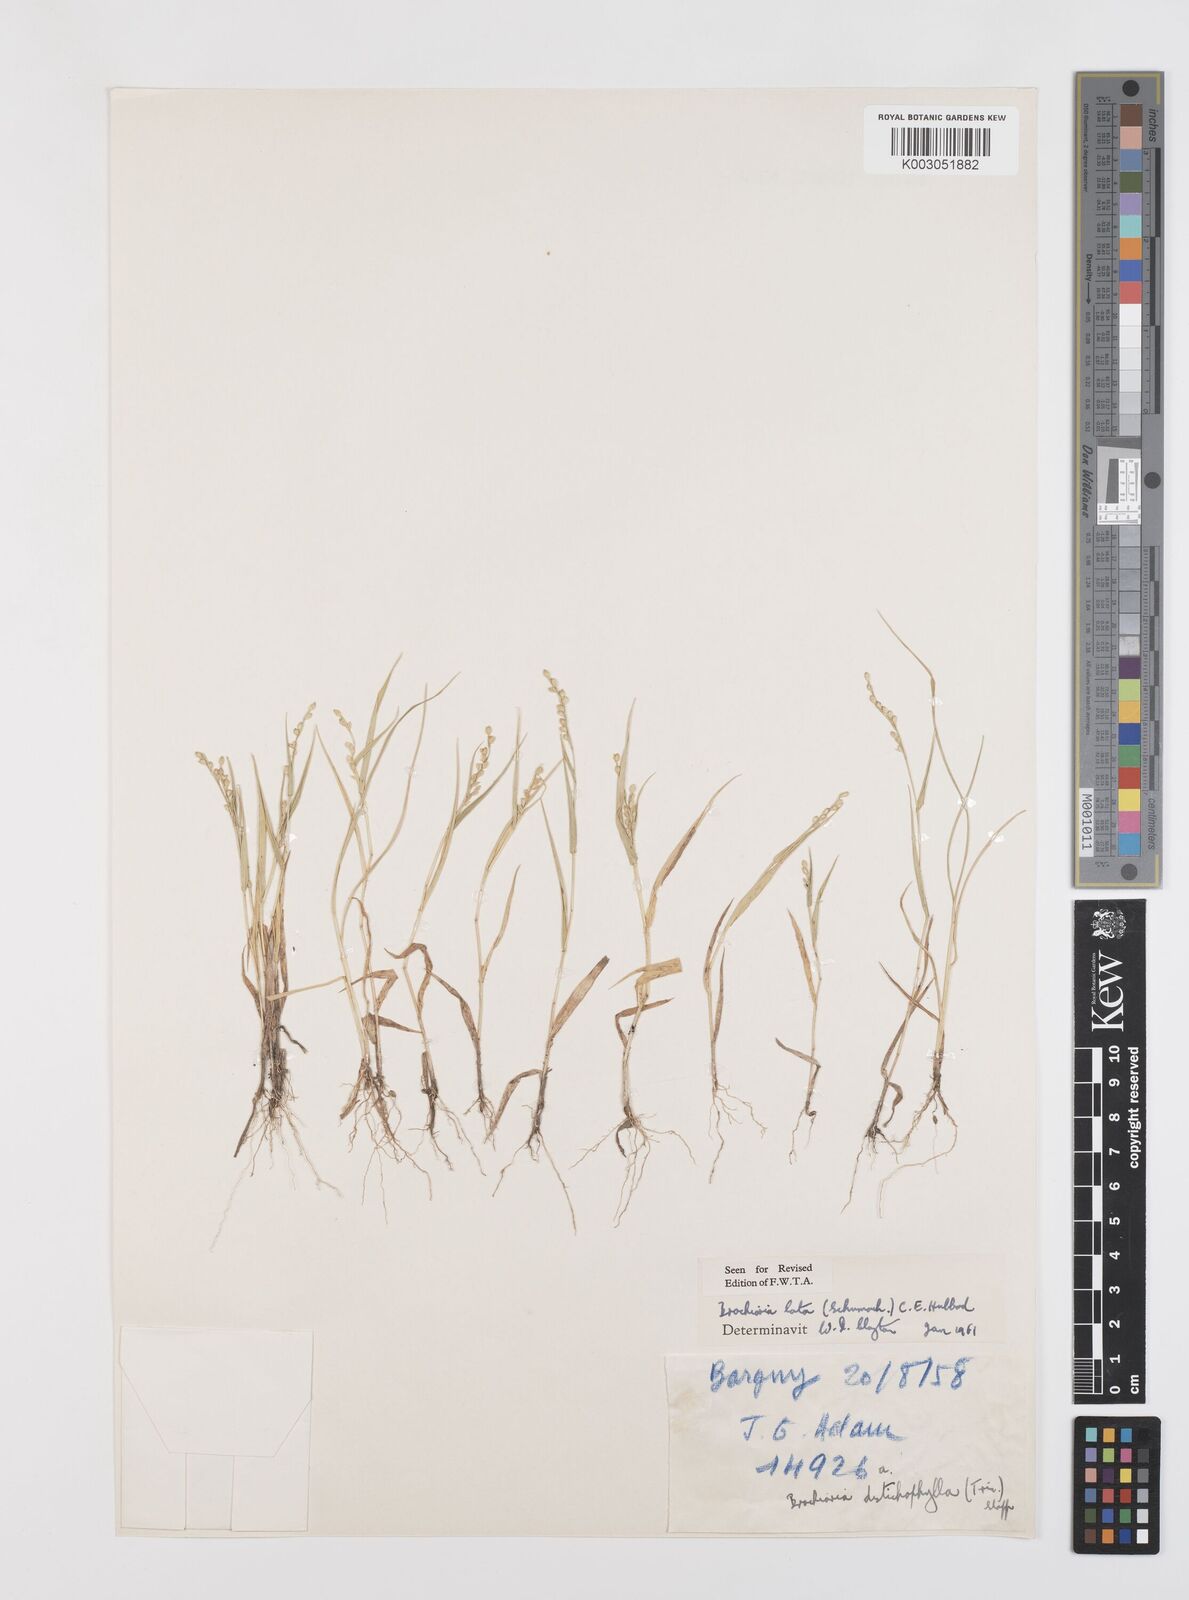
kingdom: Plantae
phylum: Tracheophyta
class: Liliopsida
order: Poales
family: Poaceae
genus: Urochloa
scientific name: Urochloa lata
